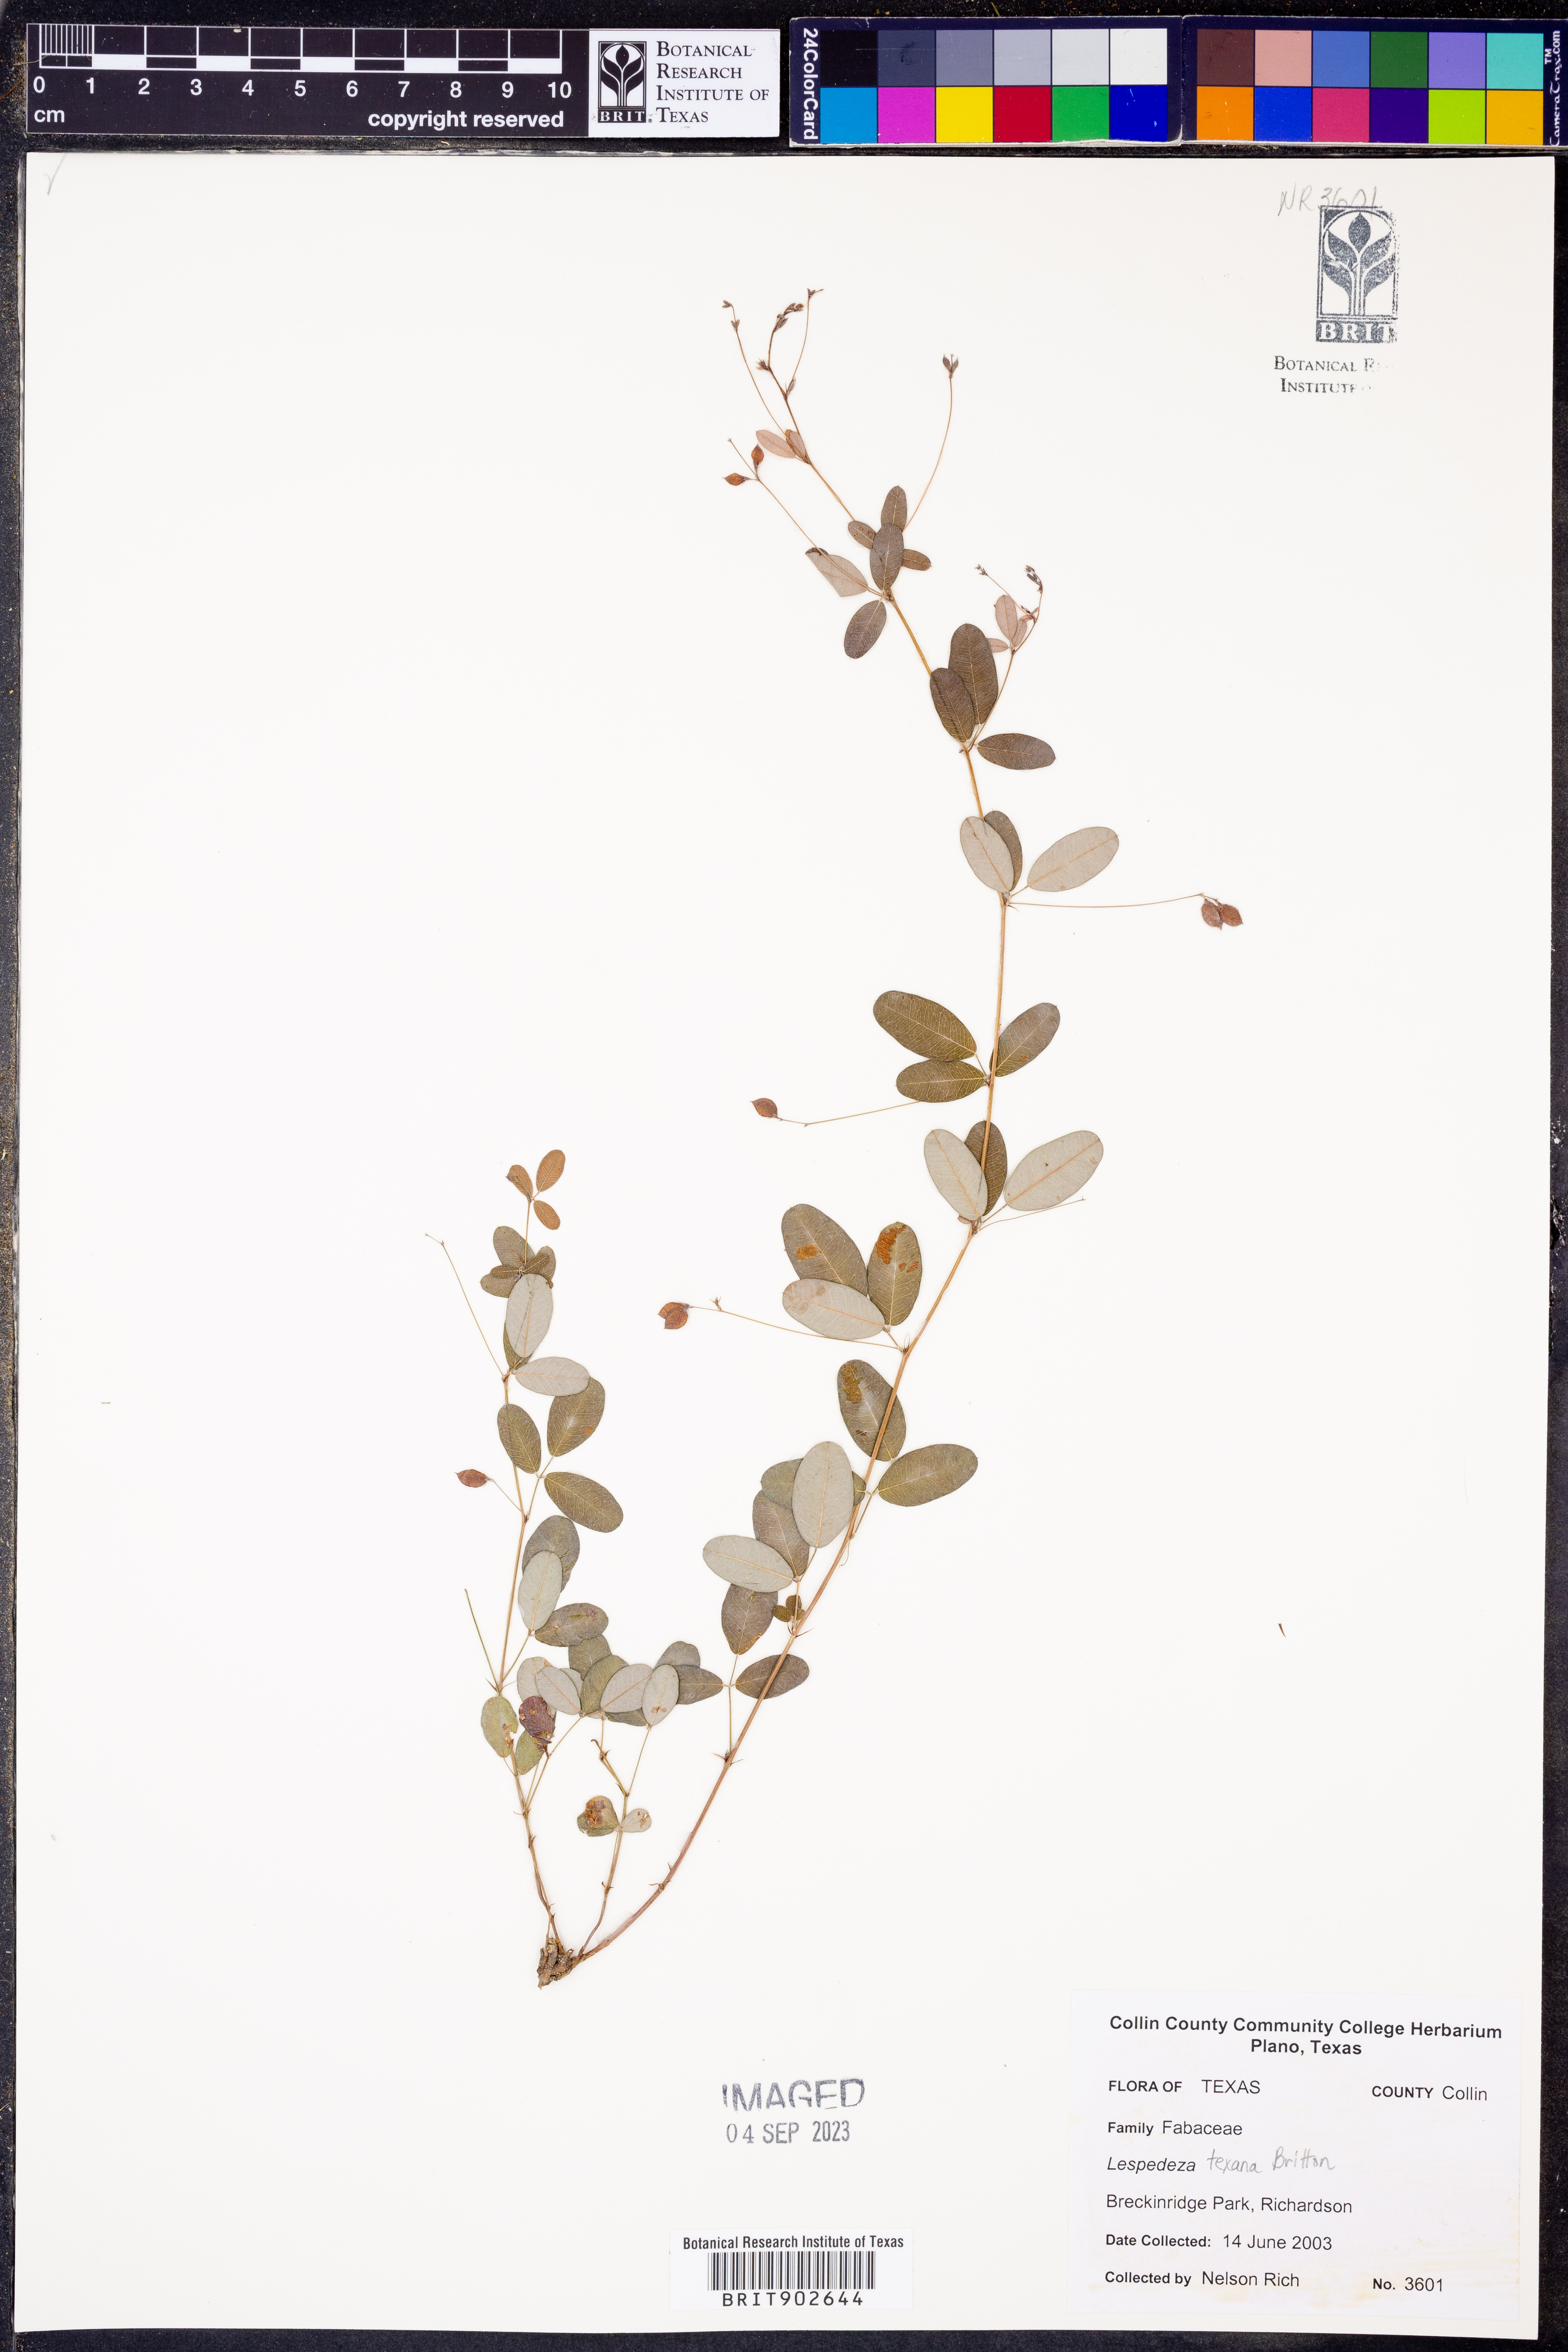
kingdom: Plantae
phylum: Tracheophyta
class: Magnoliopsida
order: Fabales
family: Fabaceae
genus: Lespedeza
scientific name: Lespedeza texana
